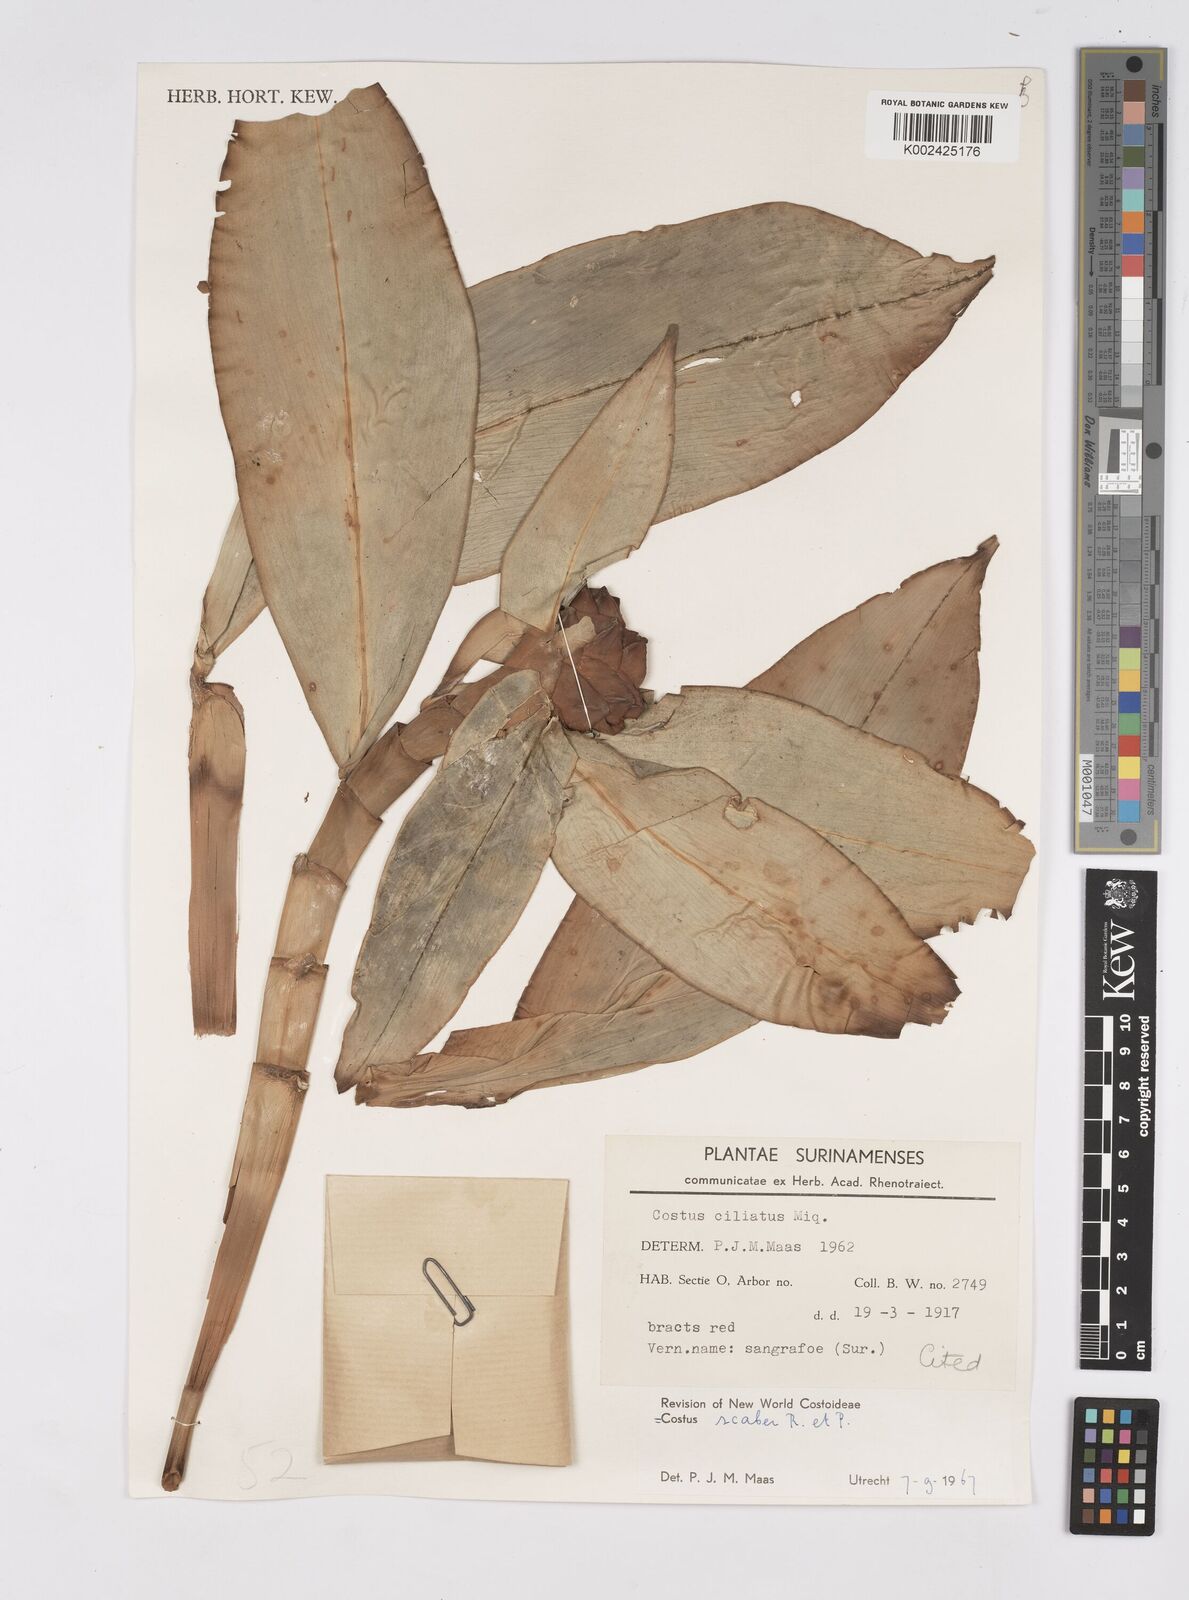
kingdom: Plantae
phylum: Tracheophyta
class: Liliopsida
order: Zingiberales
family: Costaceae
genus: Costus
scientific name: Costus scaber
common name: Spiral head ginger
